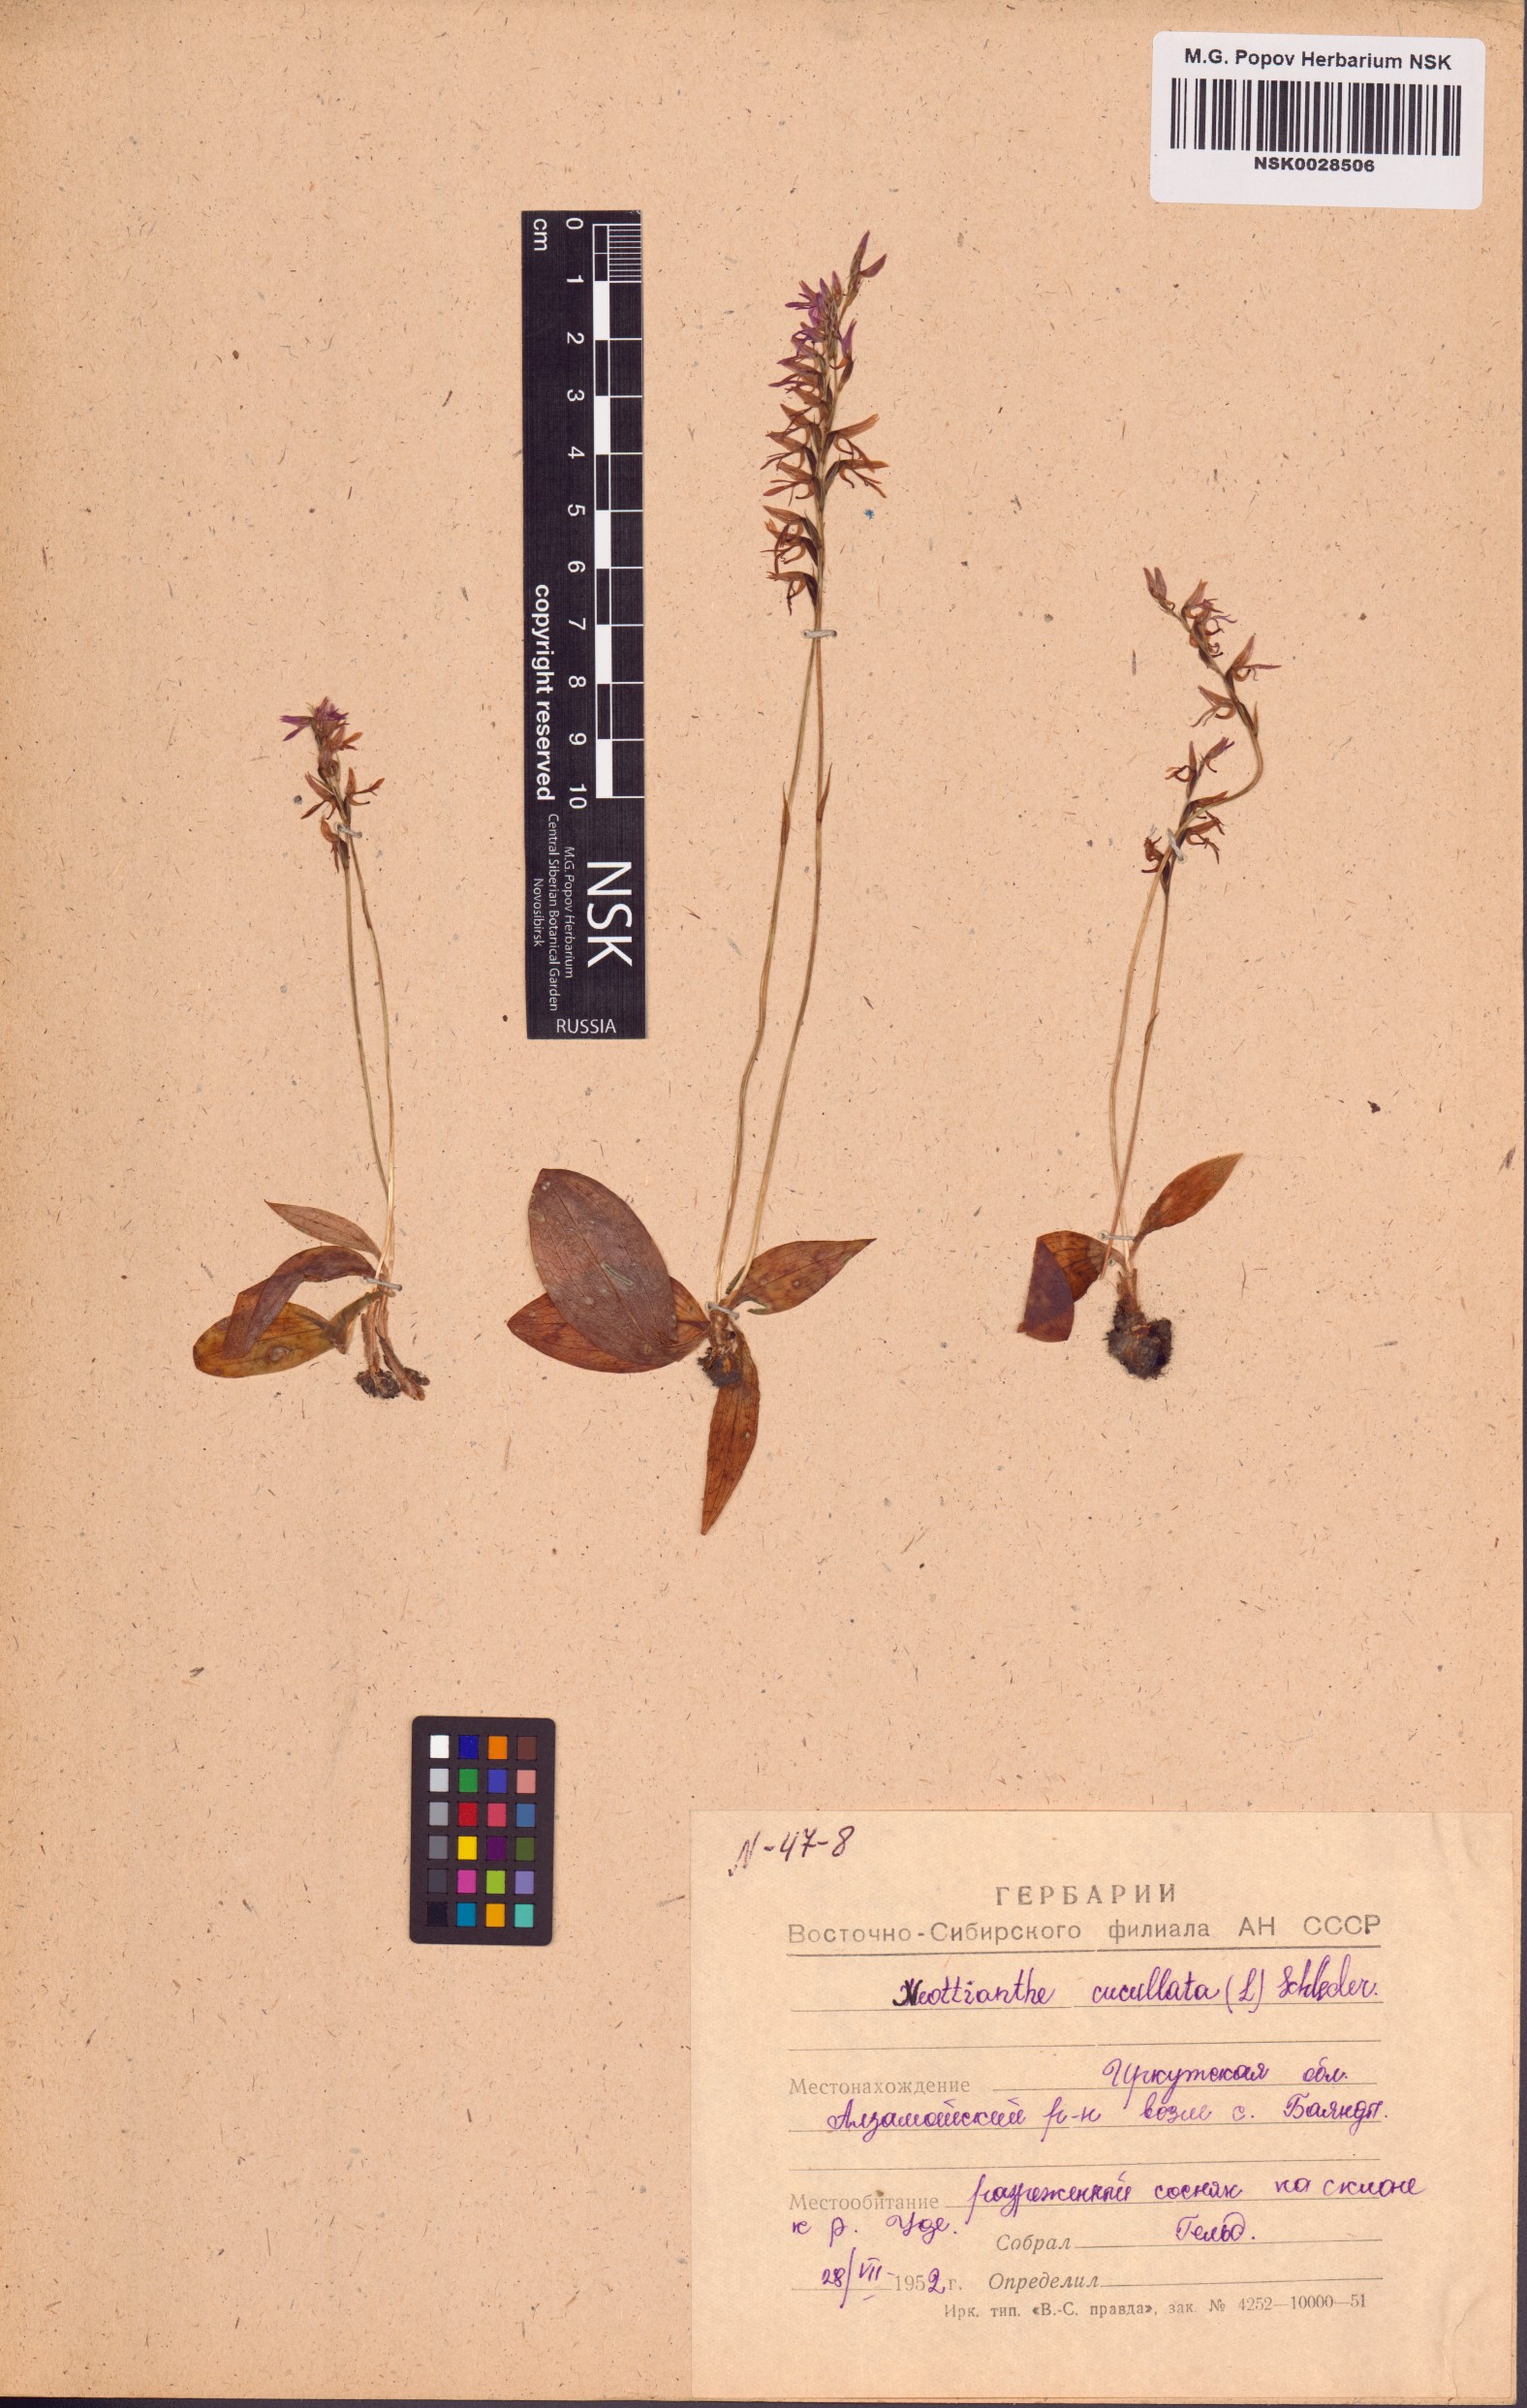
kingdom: Plantae
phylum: Tracheophyta
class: Liliopsida
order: Asparagales
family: Orchidaceae
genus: Hemipilia
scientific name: Hemipilia cucullata
